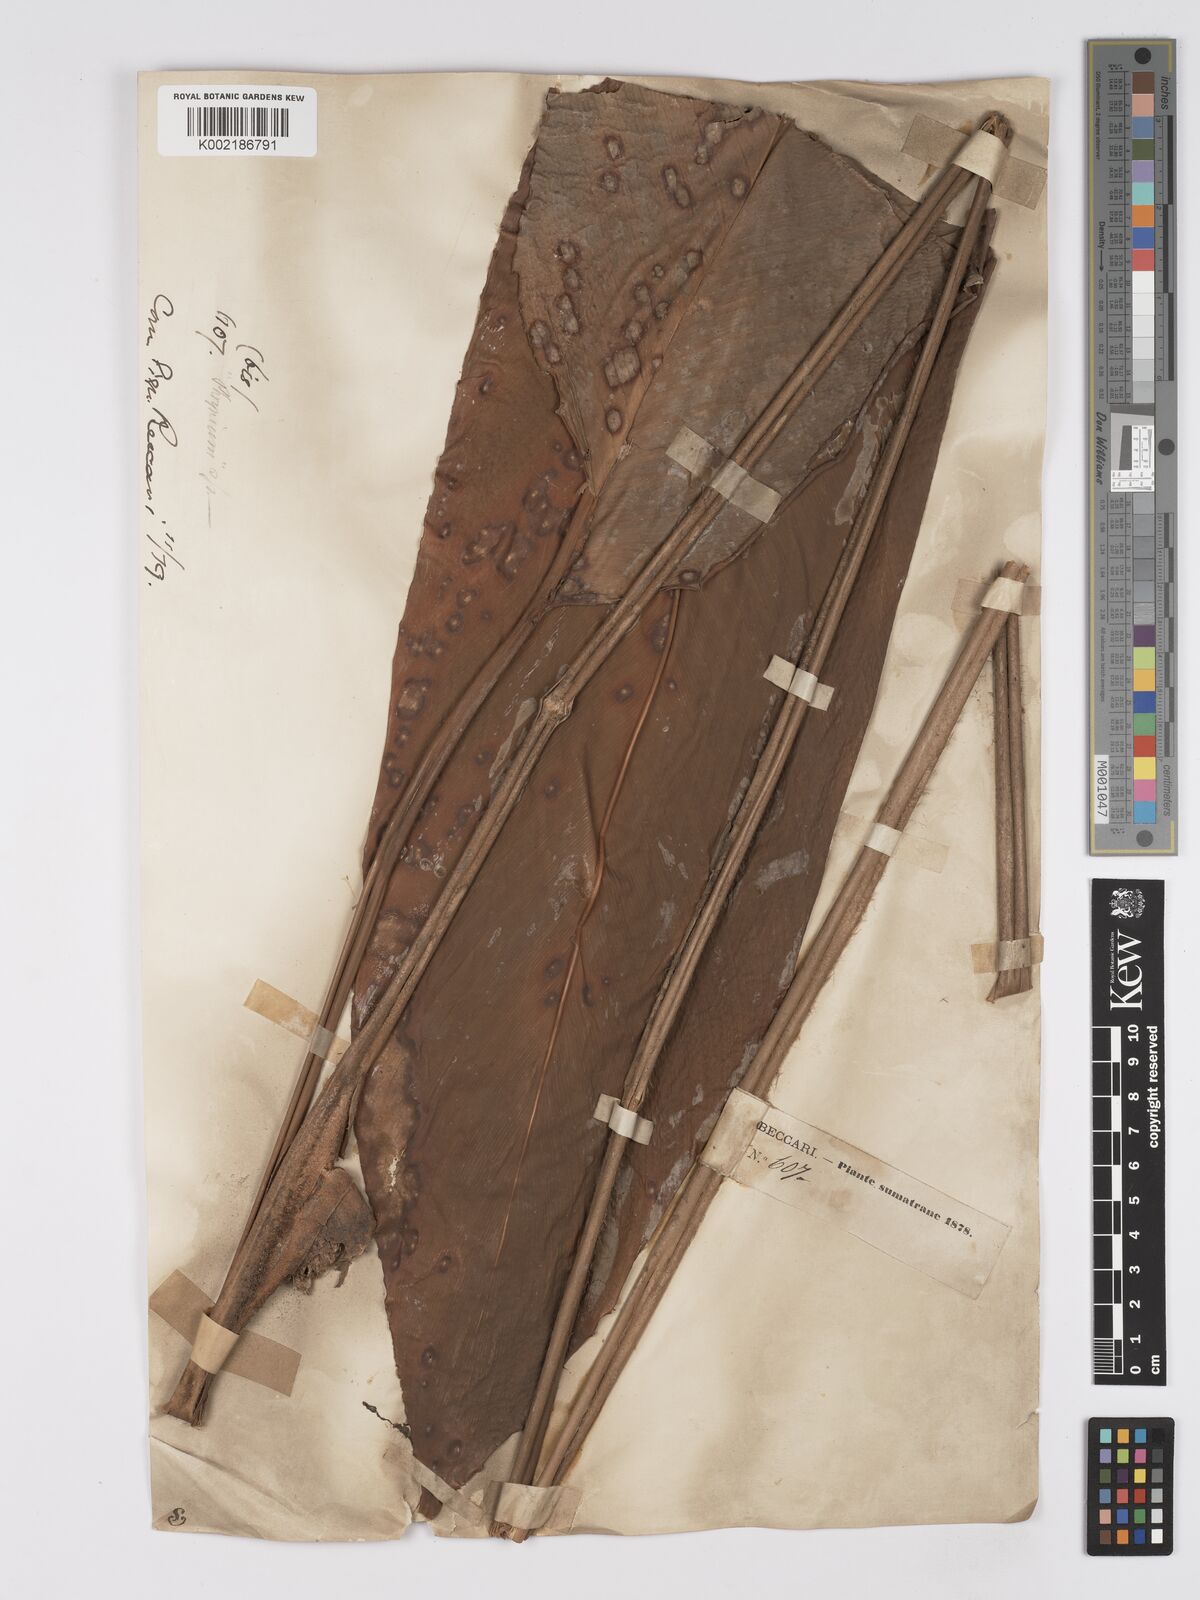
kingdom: Plantae
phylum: Tracheophyta
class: Liliopsida
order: Zingiberales
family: Marantaceae
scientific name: Marantaceae
